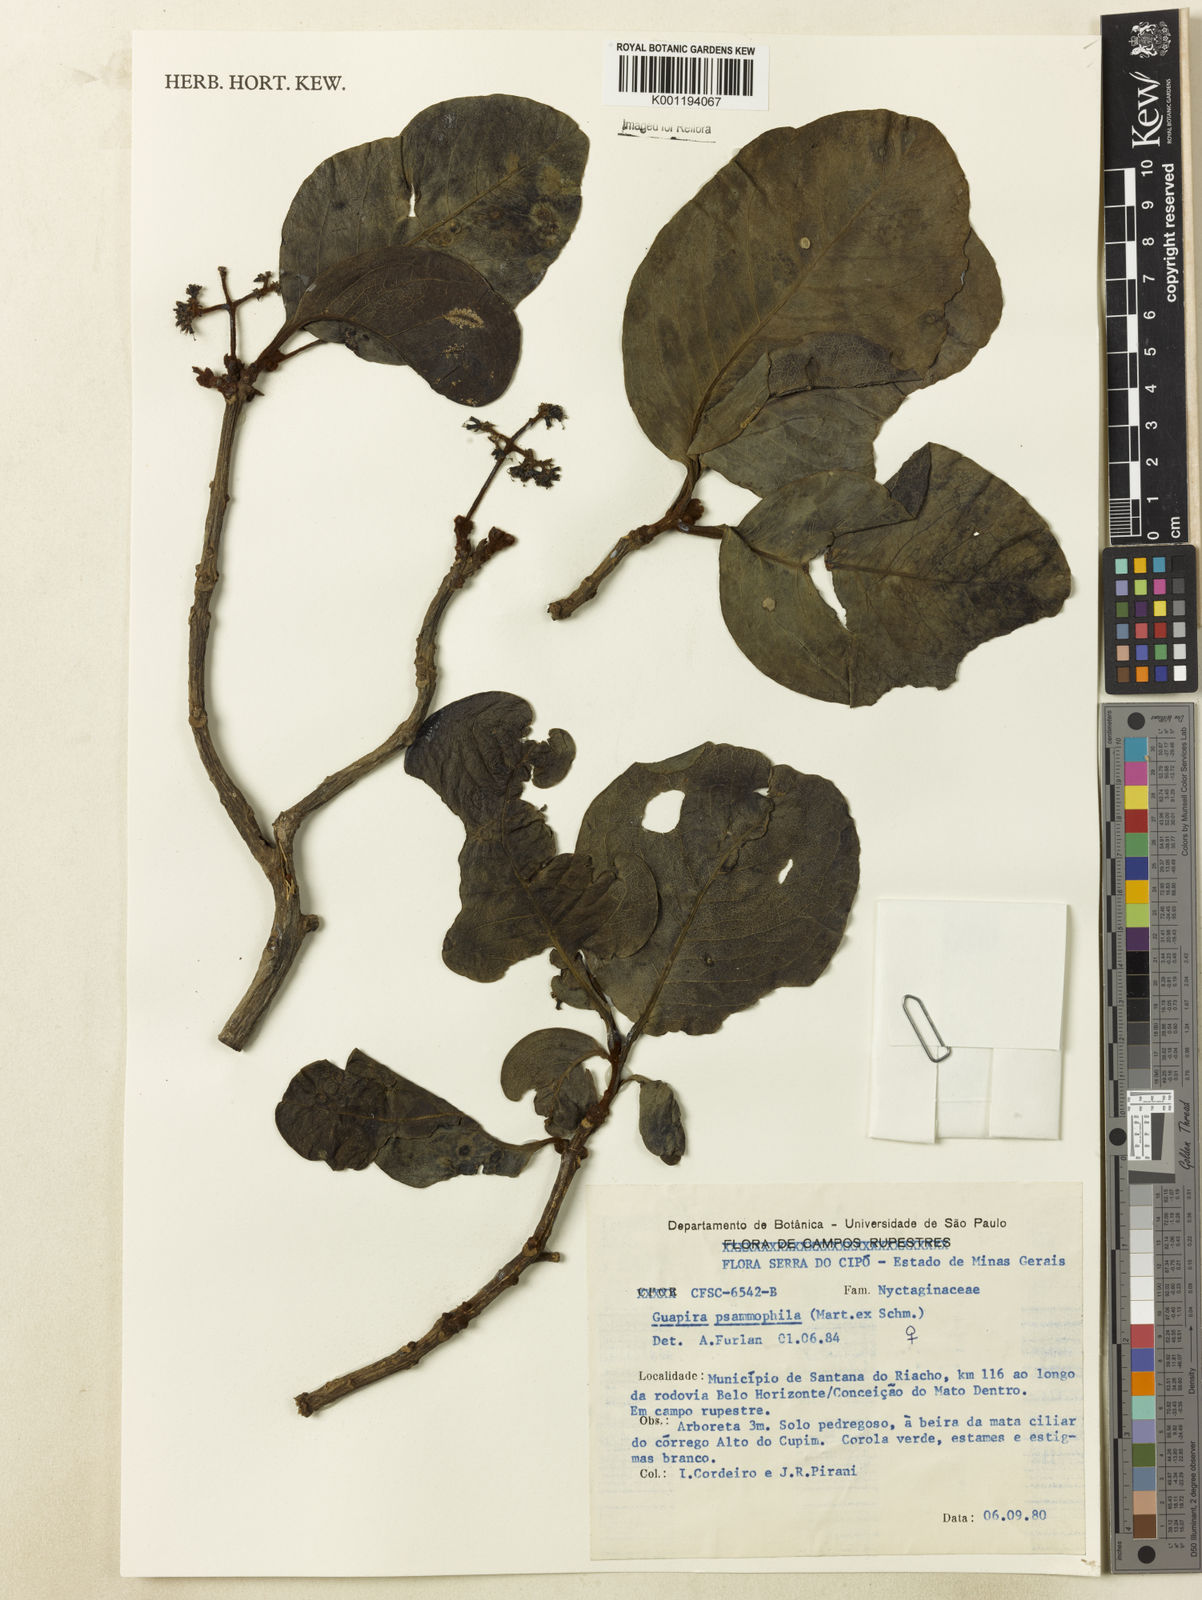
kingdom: Plantae
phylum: Tracheophyta
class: Magnoliopsida
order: Caryophyllales
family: Nyctaginaceae
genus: Guapira
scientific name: Guapira laxa
